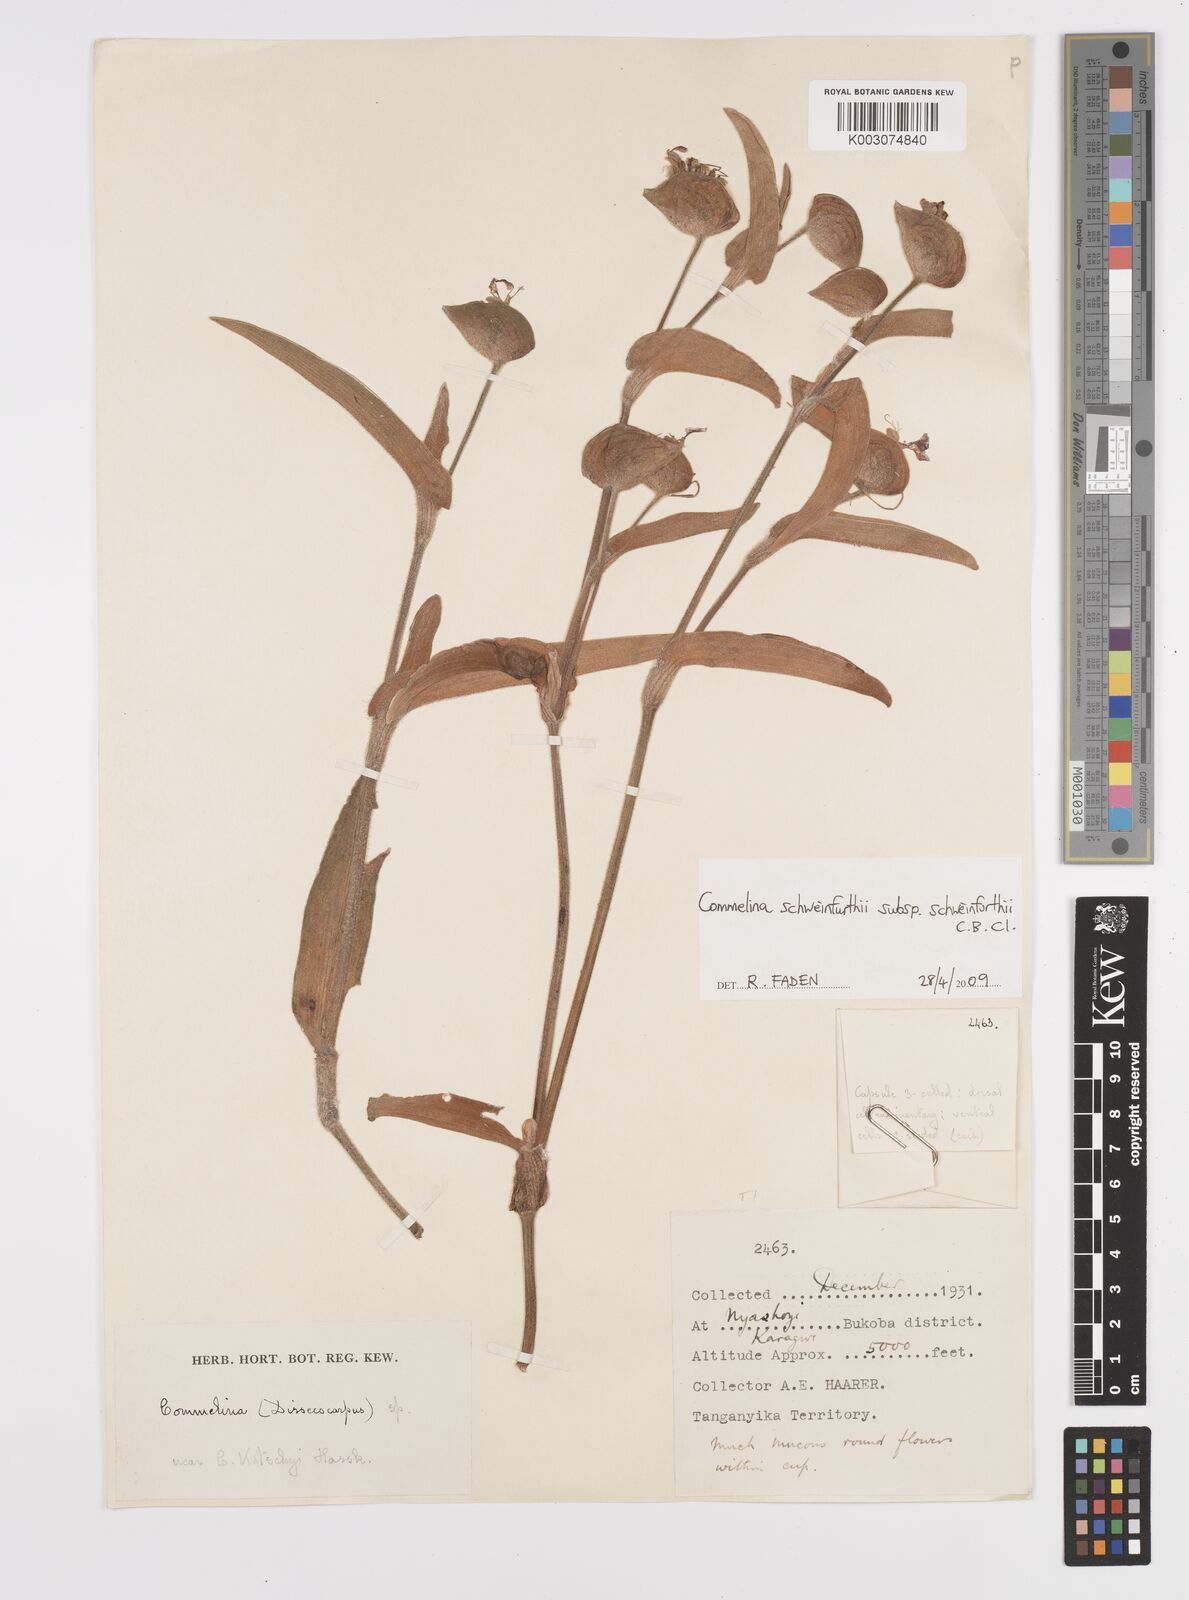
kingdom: Plantae
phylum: Tracheophyta
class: Liliopsida
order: Commelinales
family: Commelinaceae
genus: Commelina
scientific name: Commelina schweinfurthii
